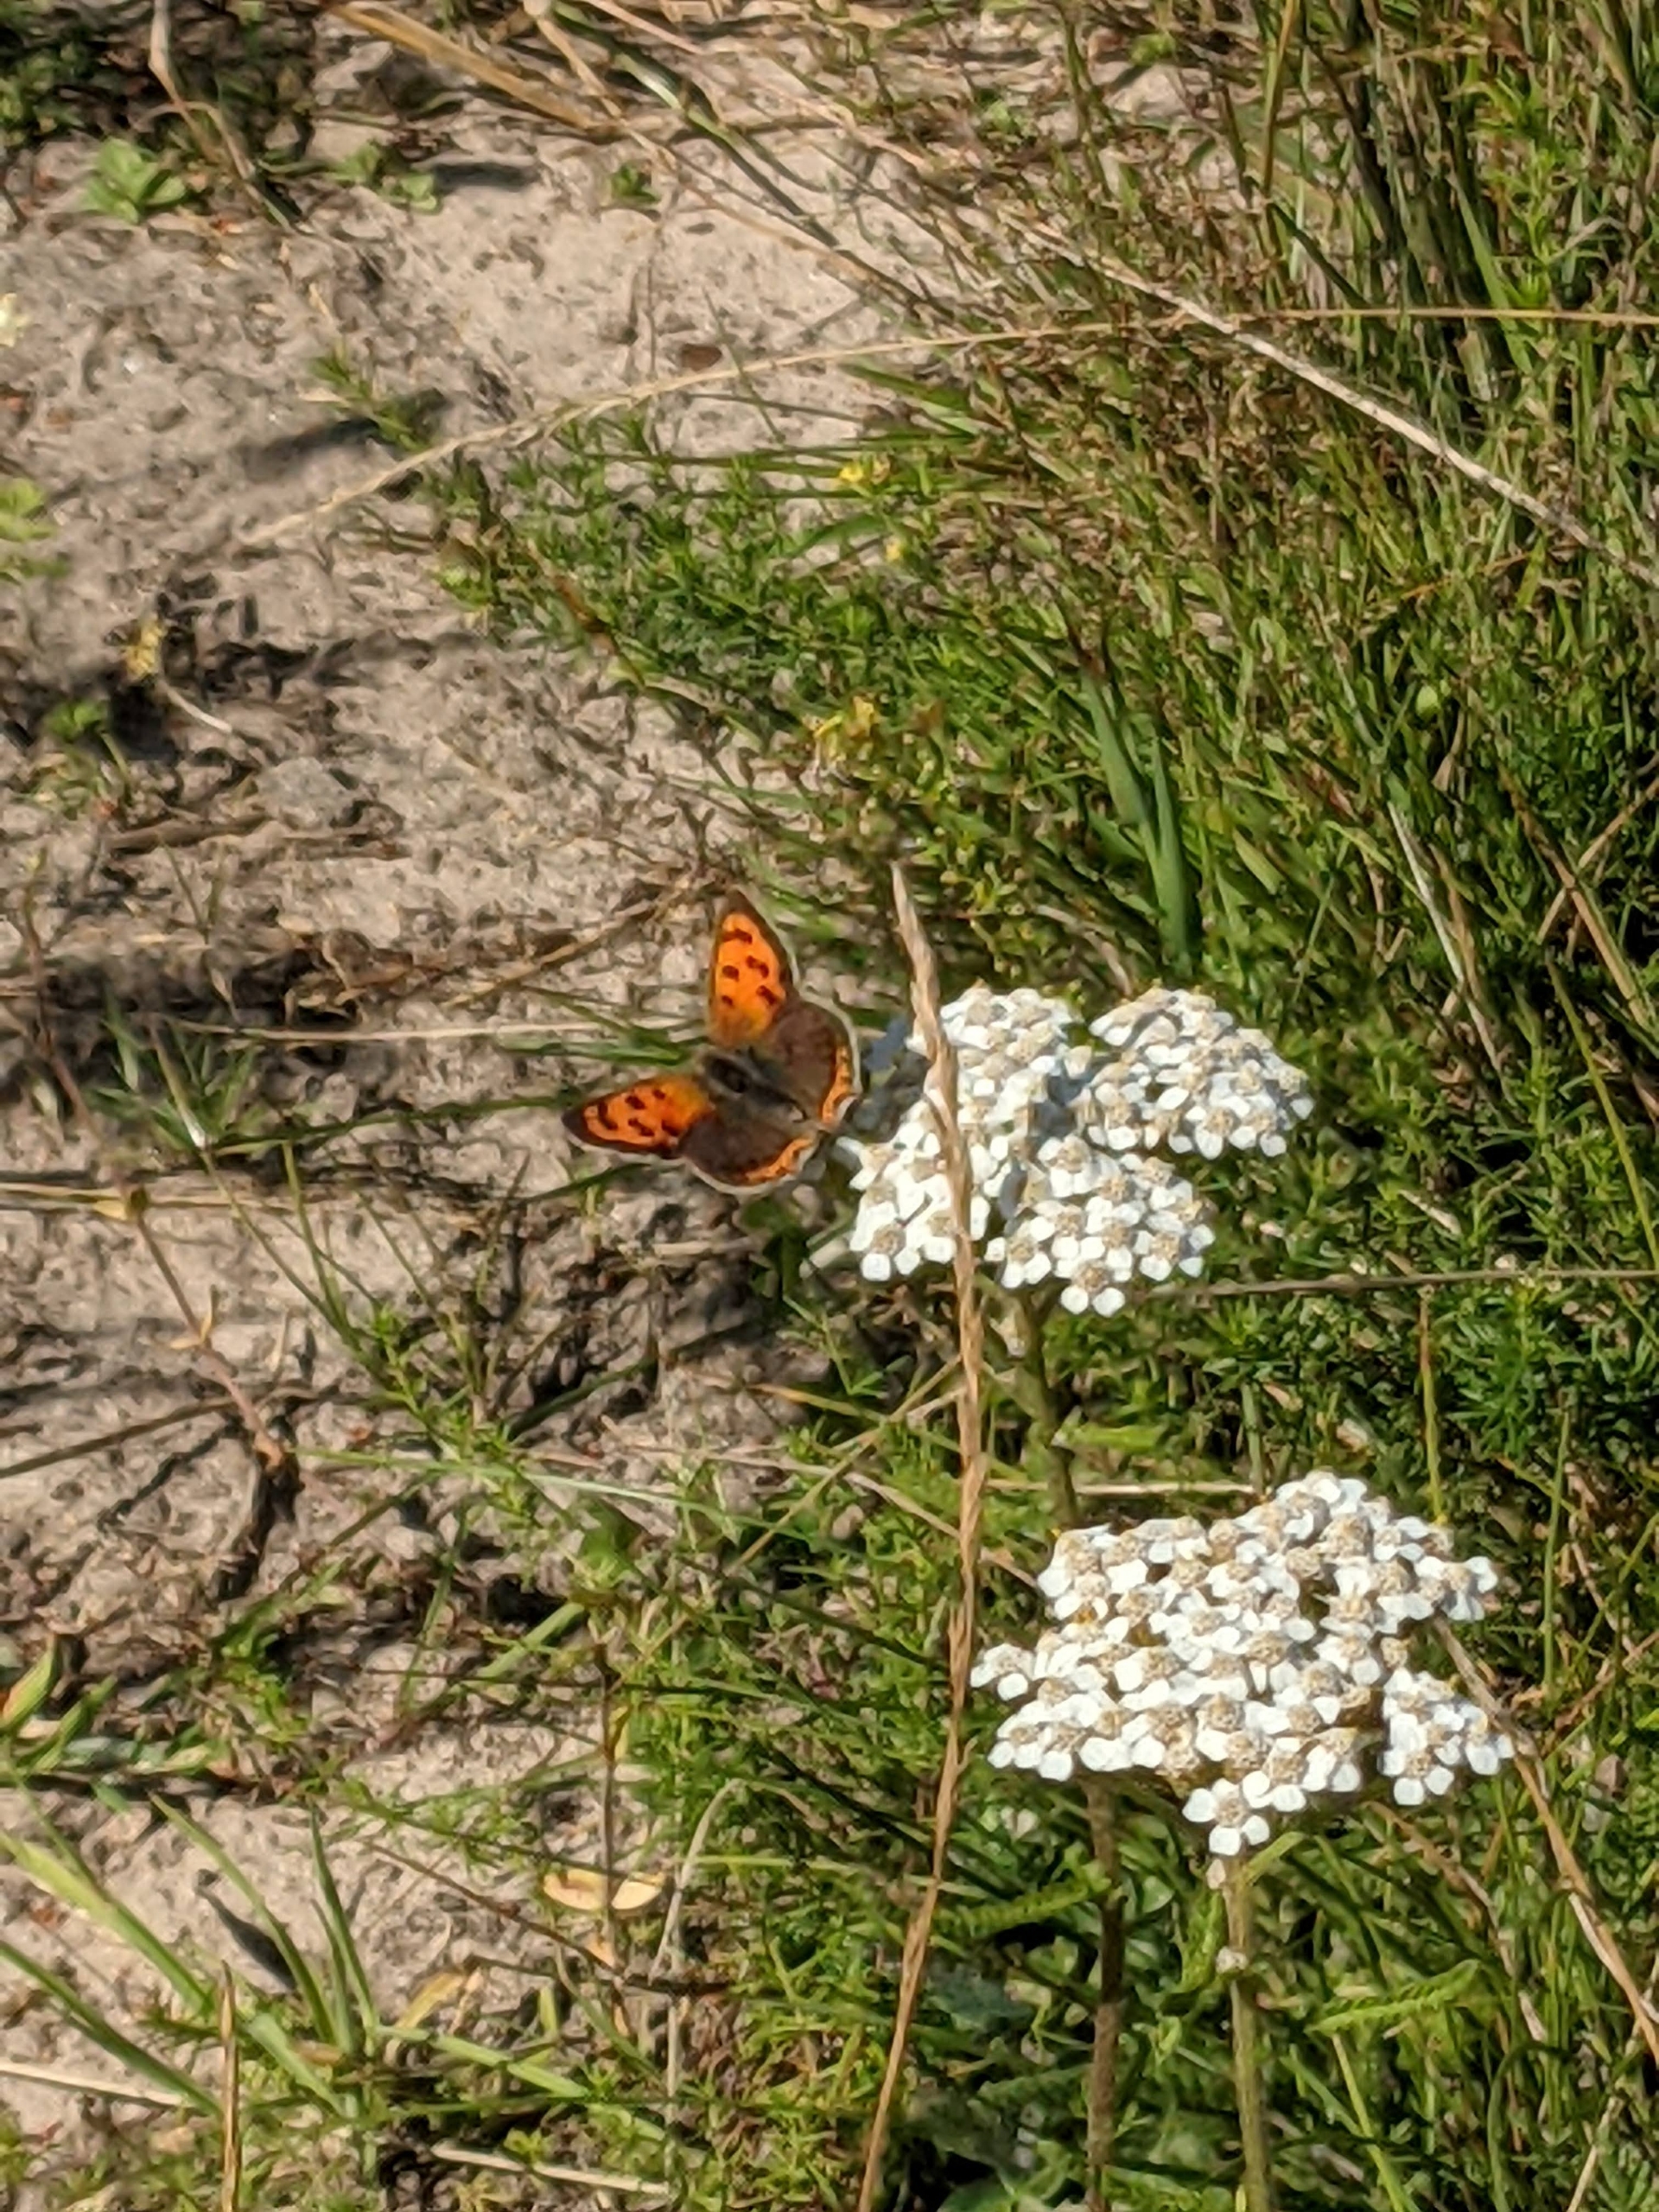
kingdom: Animalia
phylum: Arthropoda
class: Insecta
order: Lepidoptera
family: Lycaenidae
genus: Lycaena
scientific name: Lycaena phlaeas
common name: Lille ildfugl
